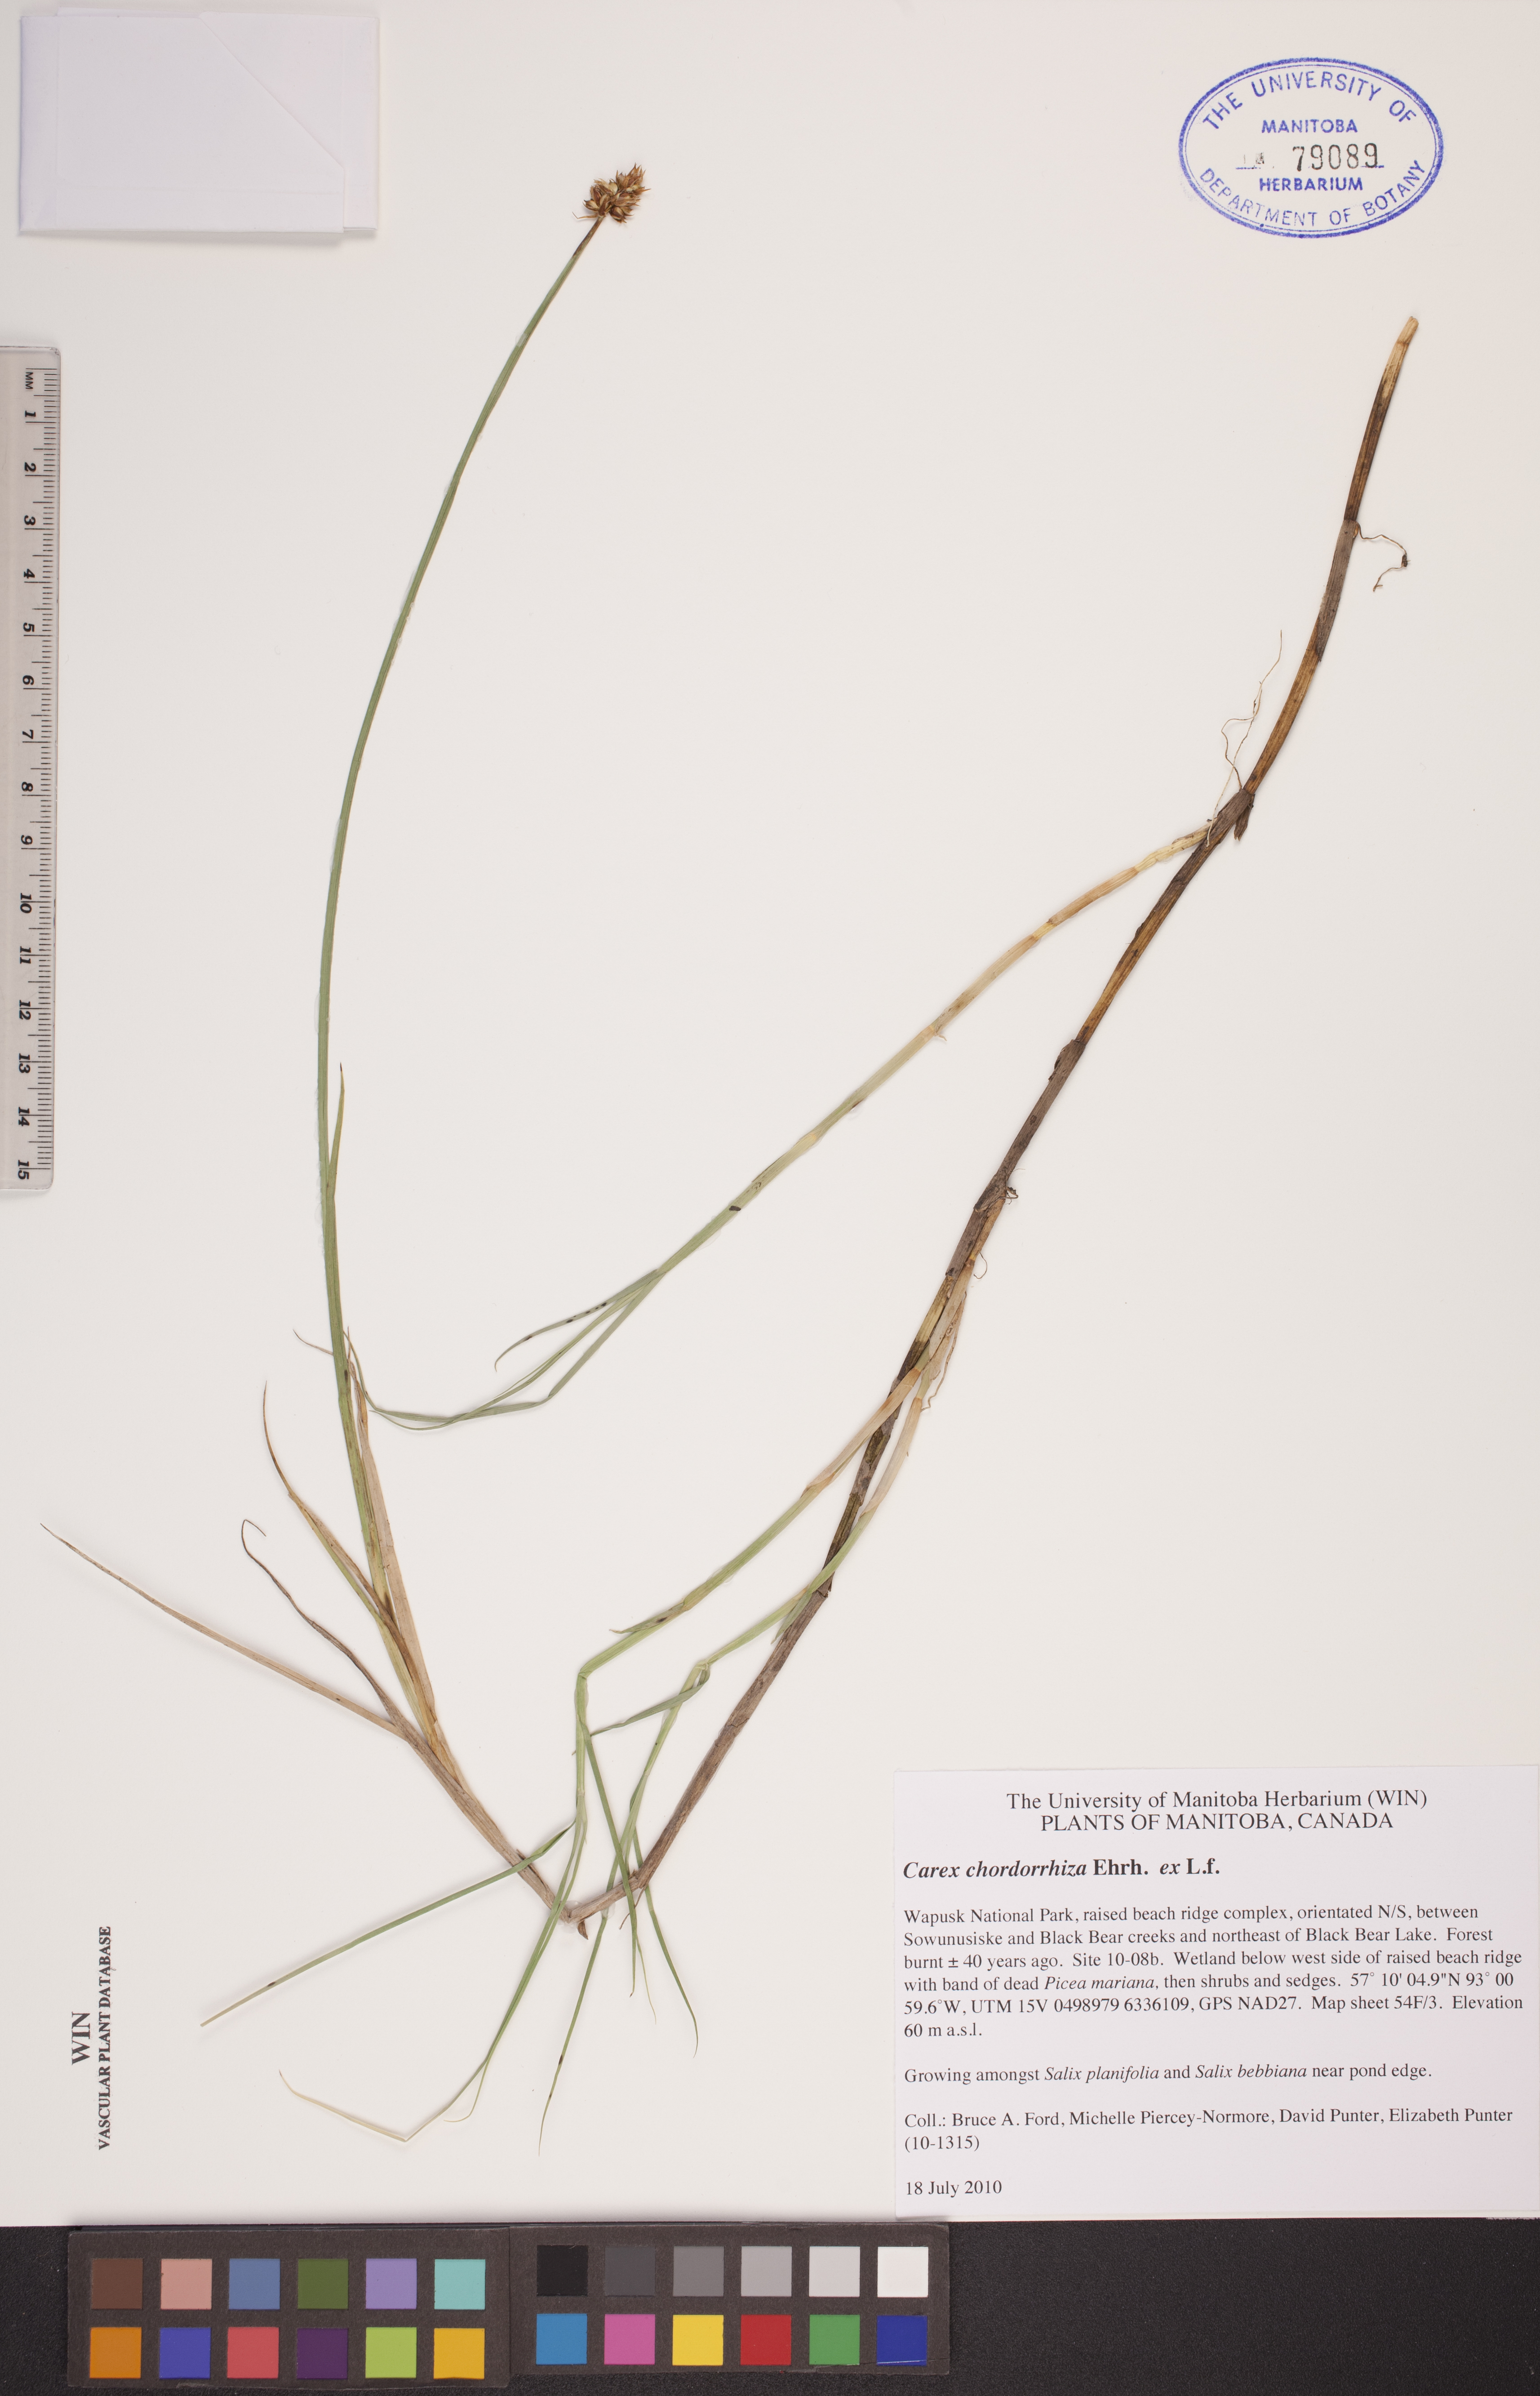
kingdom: Plantae
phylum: Tracheophyta
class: Liliopsida
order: Poales
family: Cyperaceae
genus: Carex
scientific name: Carex chordorrhiza
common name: String sedge
